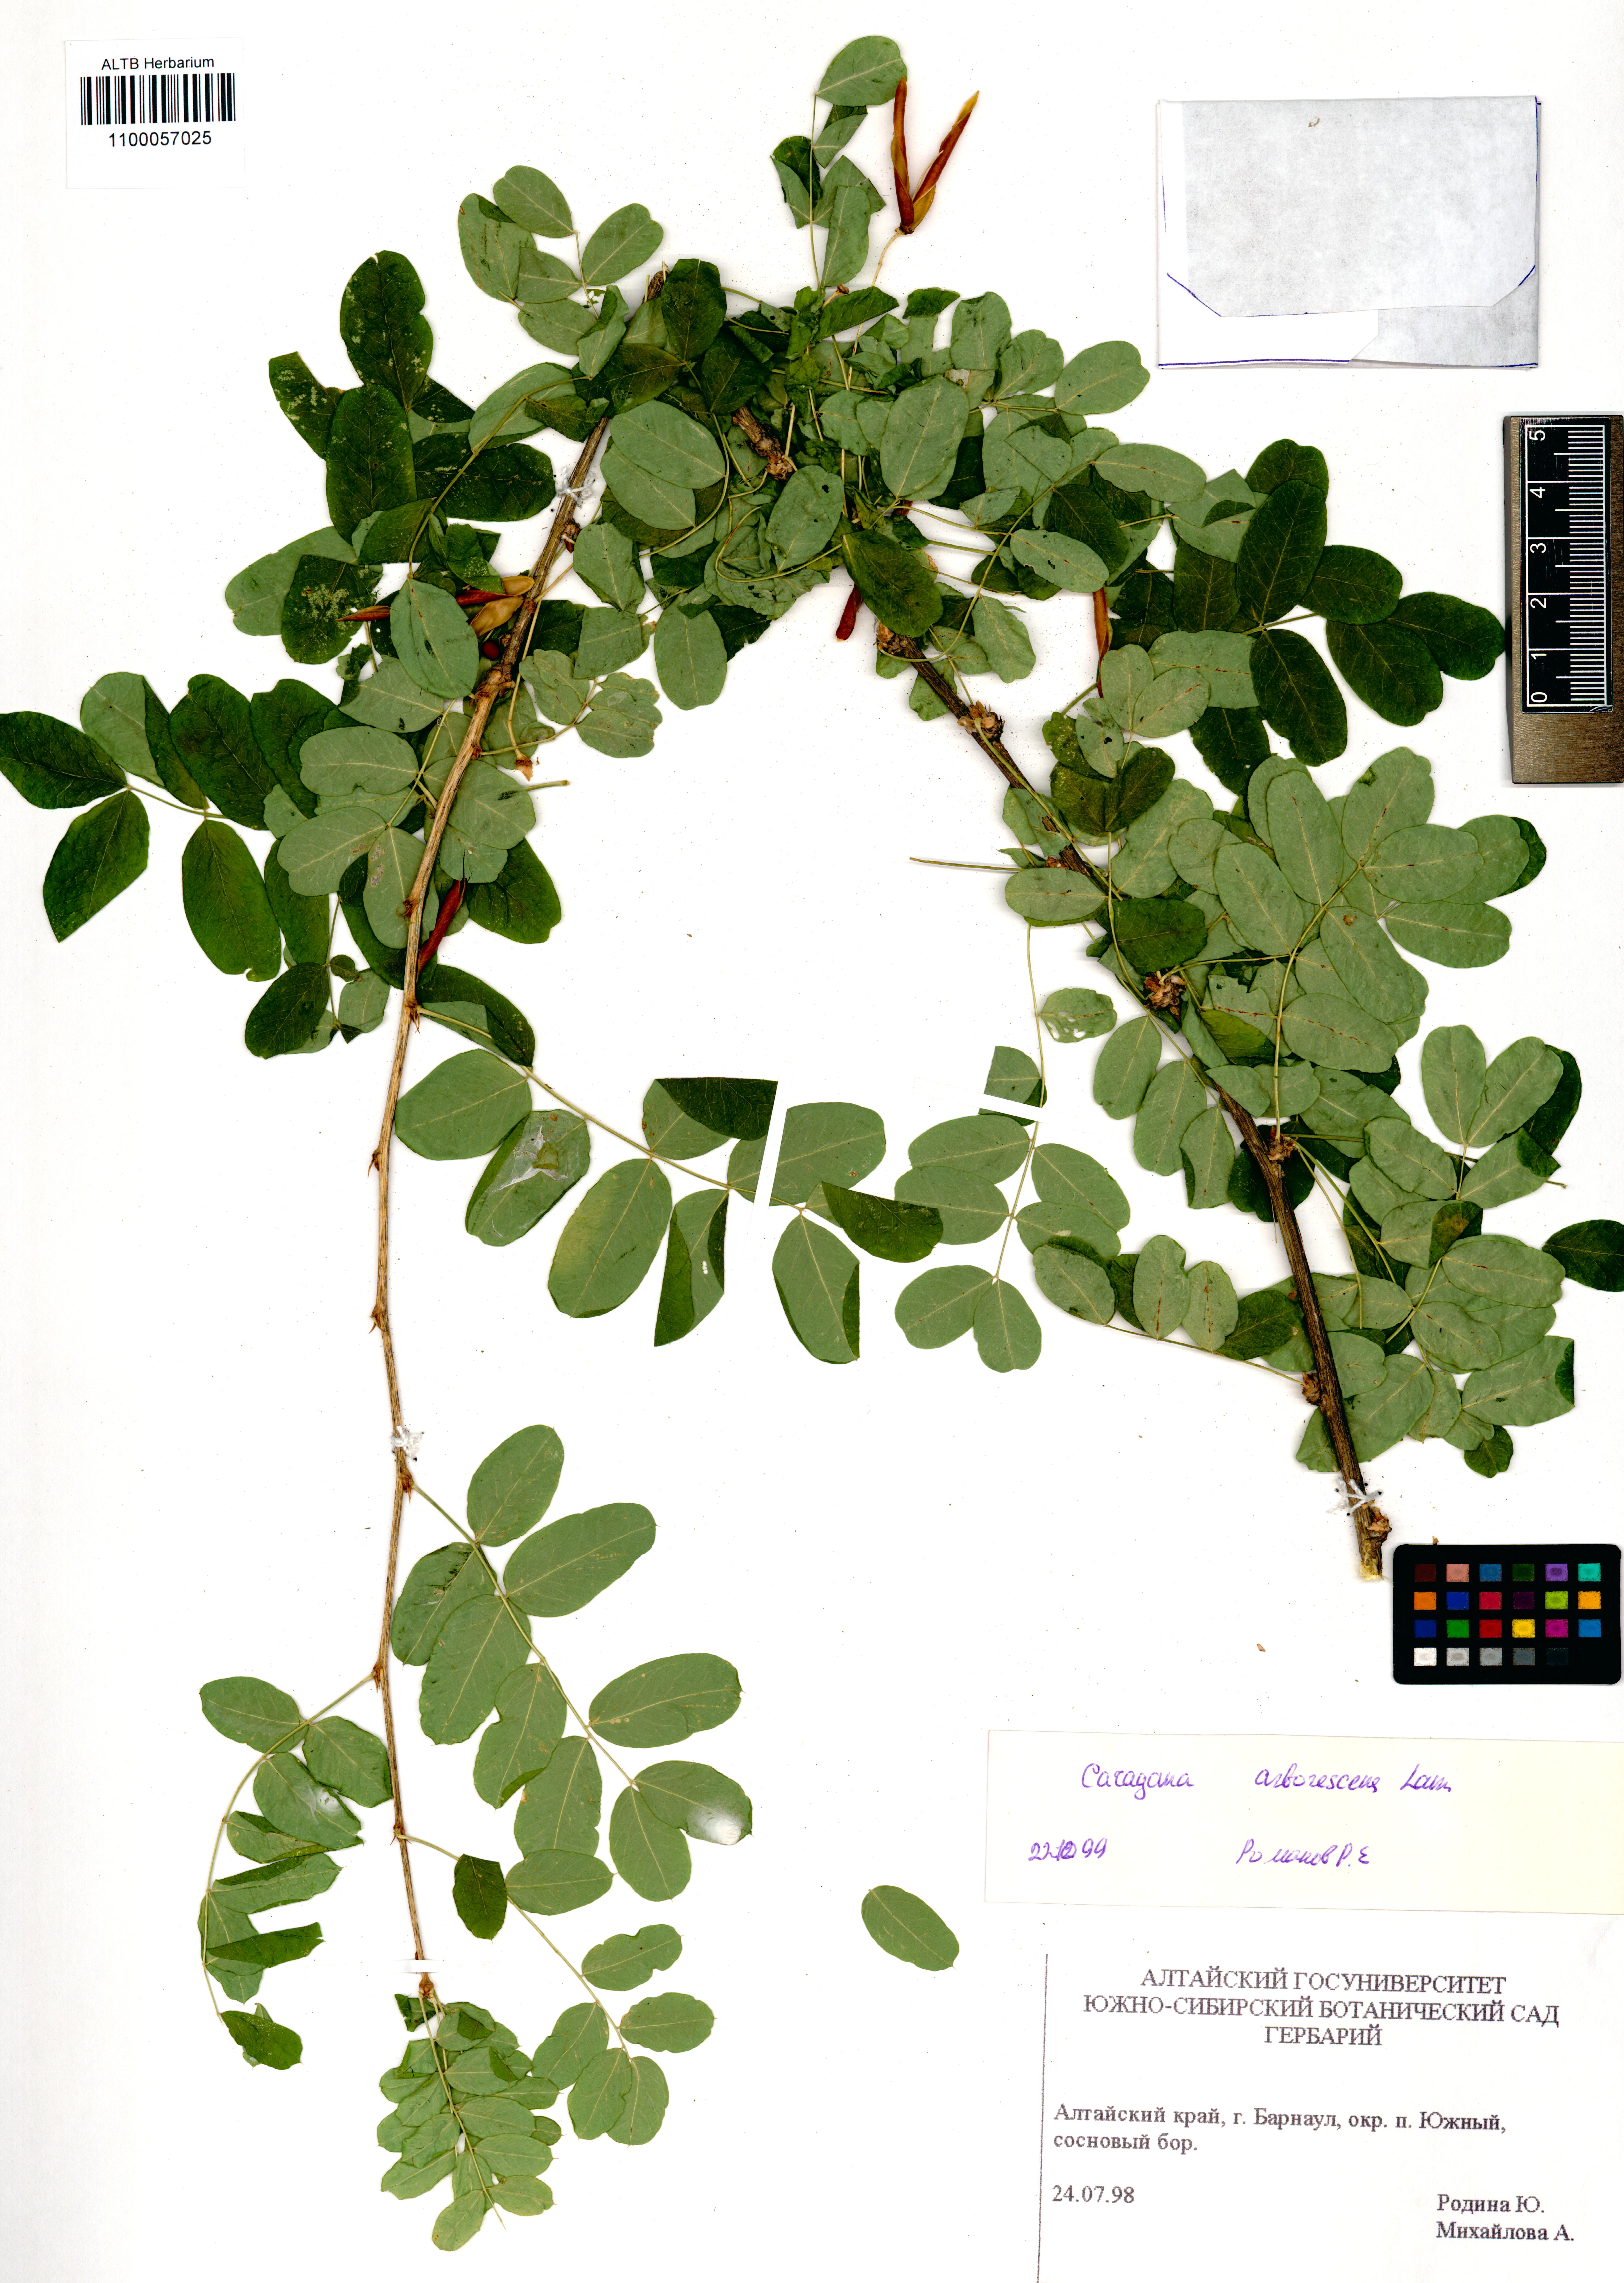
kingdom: Plantae
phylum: Tracheophyta
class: Magnoliopsida
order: Fabales
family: Fabaceae
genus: Caragana
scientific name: Caragana arborescens
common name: Siberian peashrub
